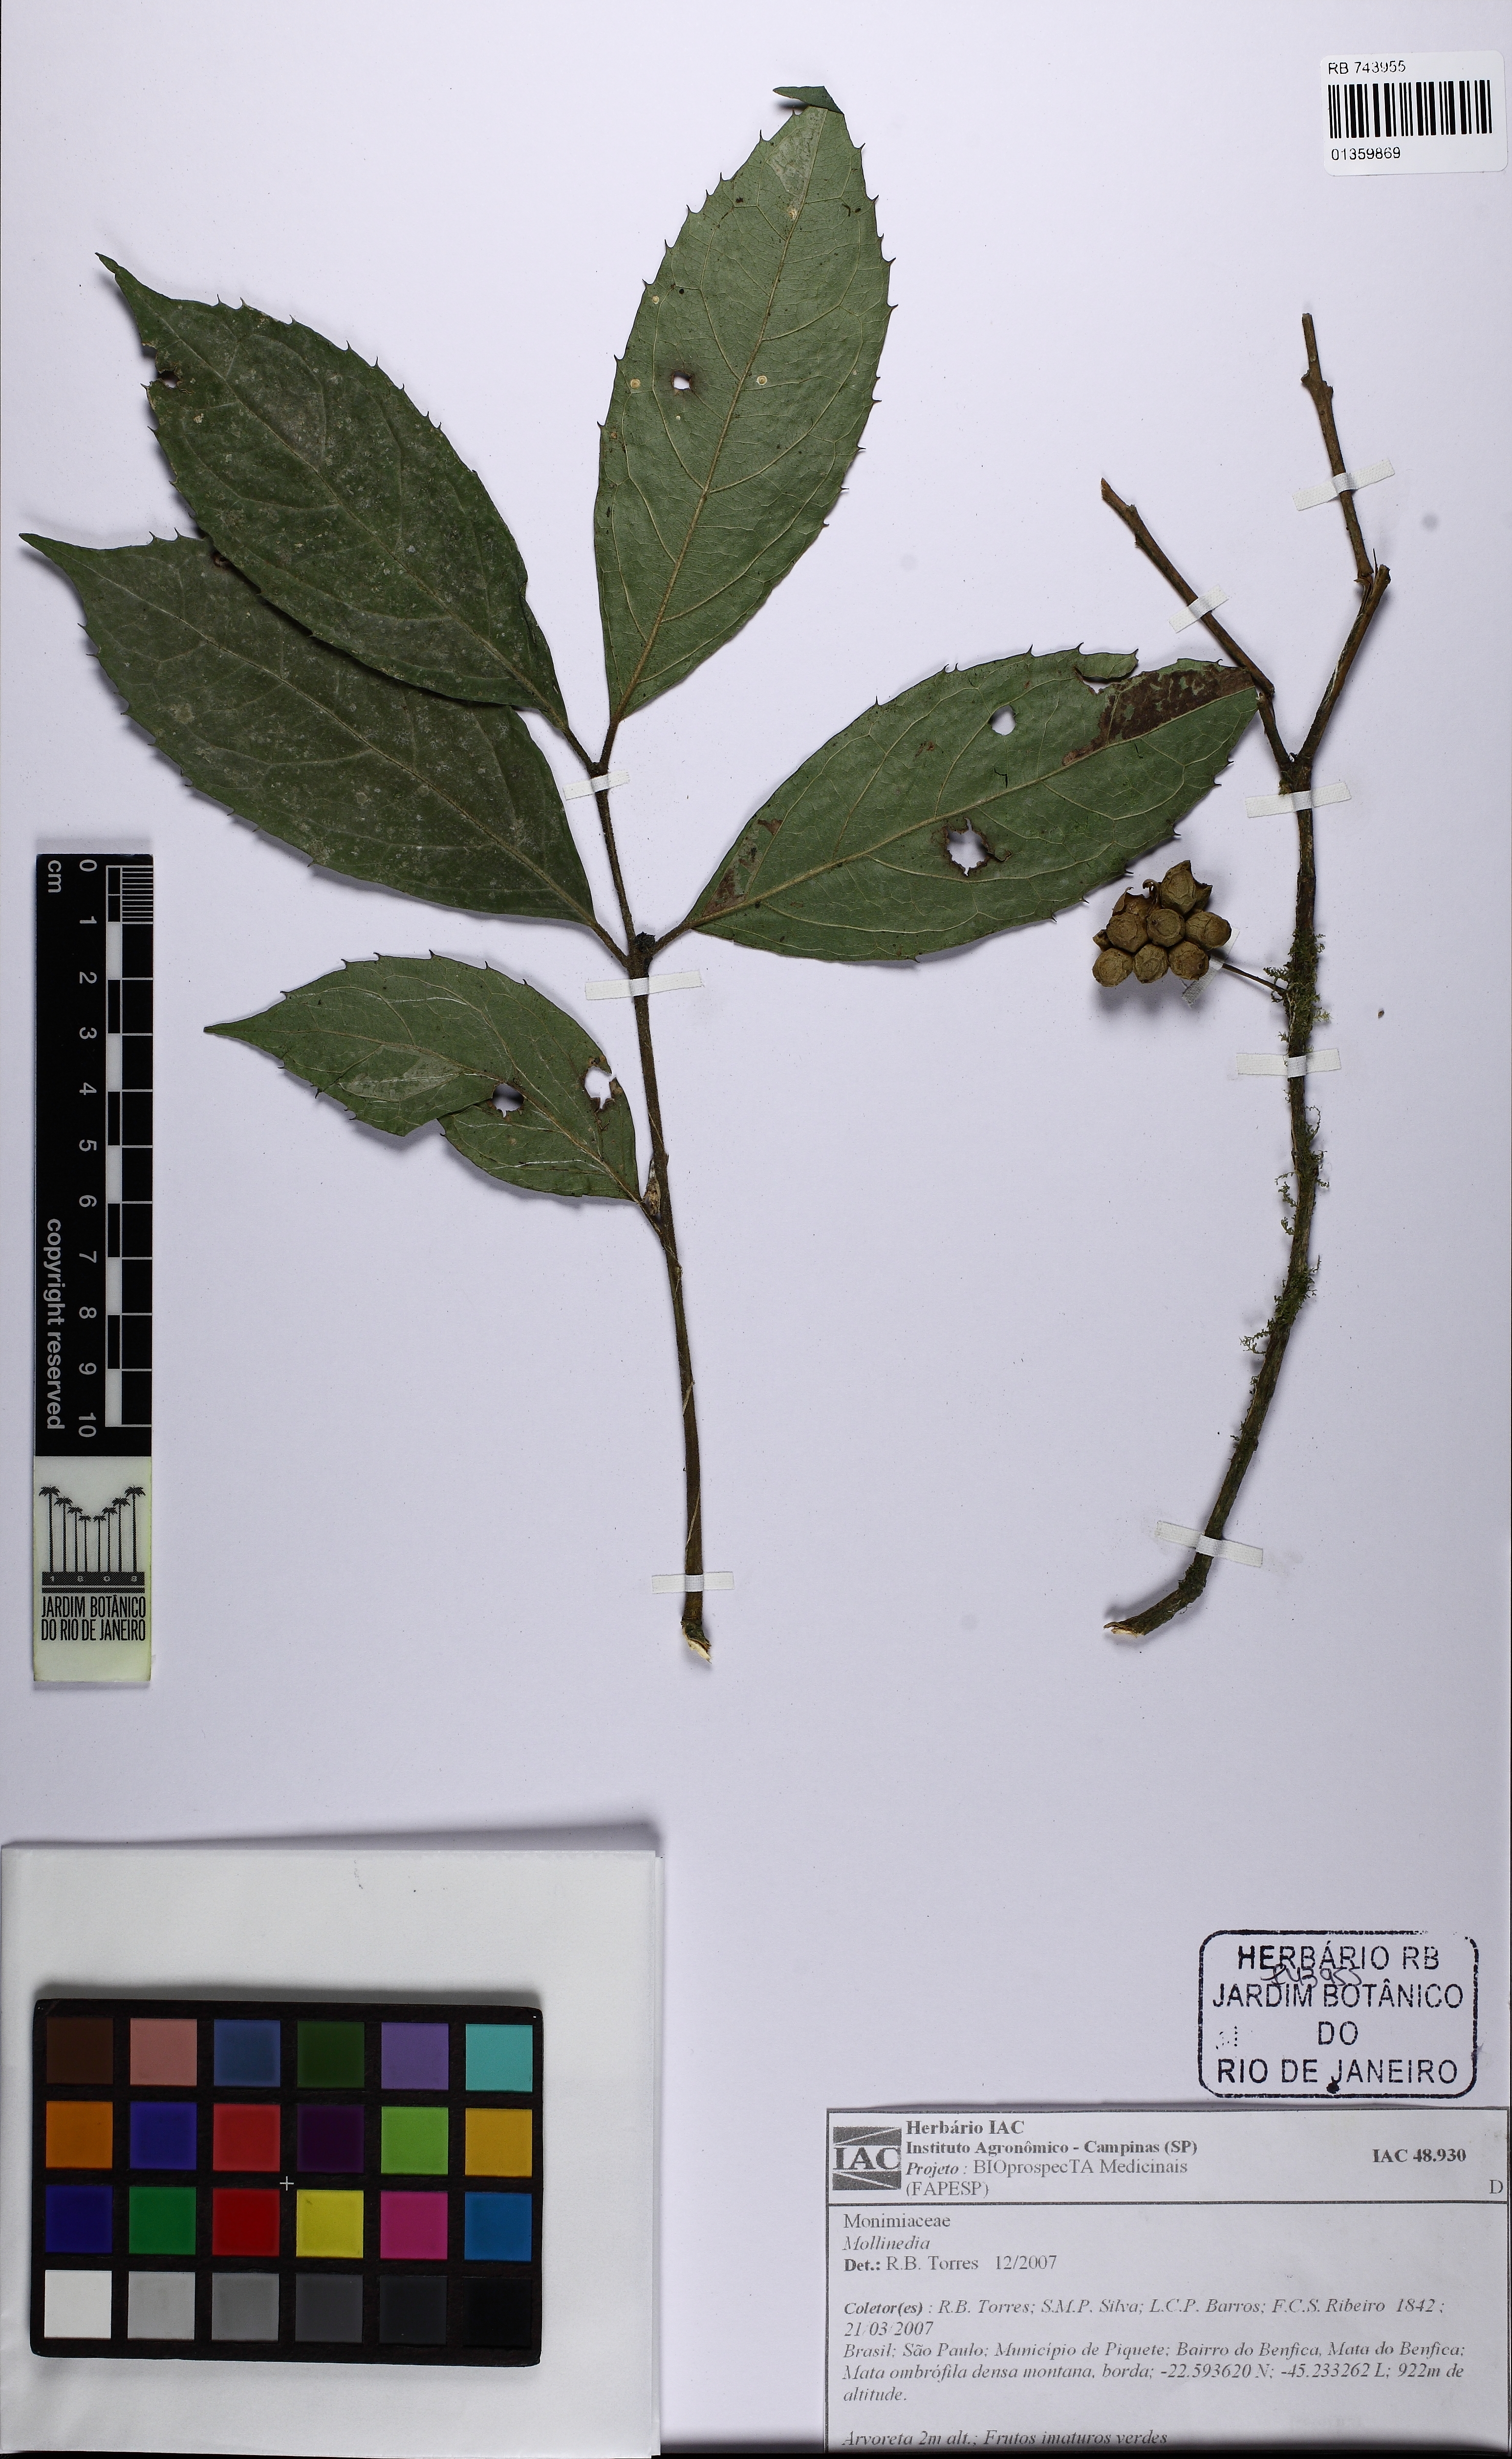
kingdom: Plantae
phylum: Tracheophyta
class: Magnoliopsida
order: Laurales
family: Monimiaceae
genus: Mollinedia
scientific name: Mollinedia umbellata
